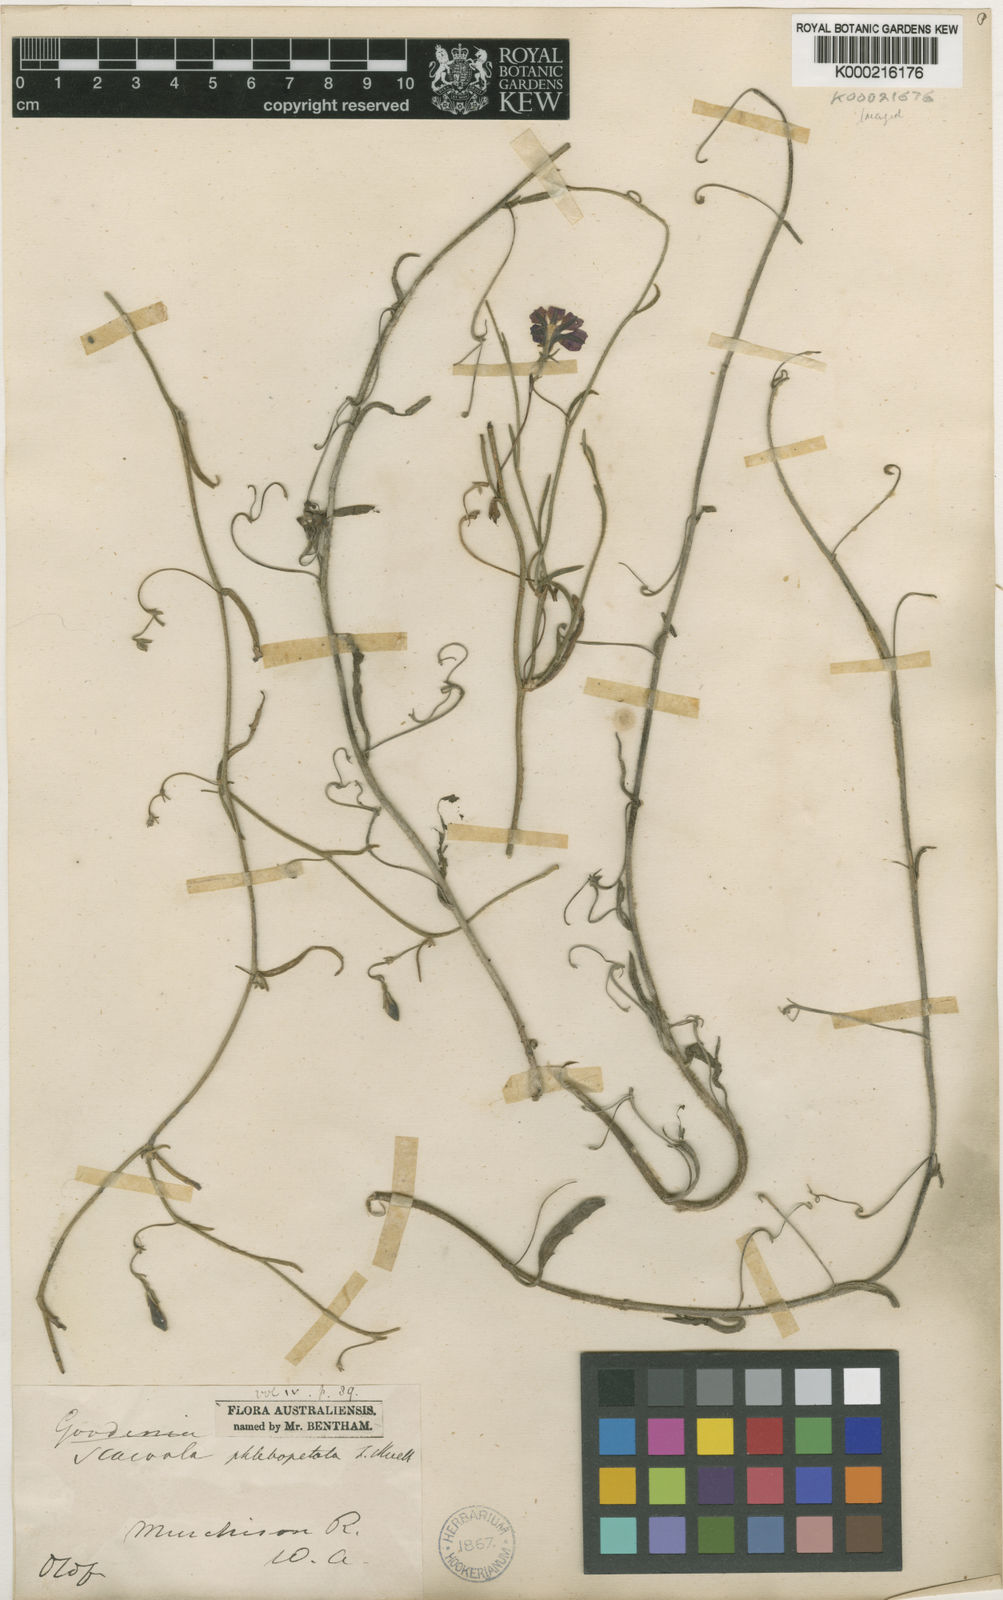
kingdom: Plantae
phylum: Tracheophyta
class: Magnoliopsida
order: Asterales
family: Goodeniaceae
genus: Scaevola
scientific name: Scaevola phlebopetala
